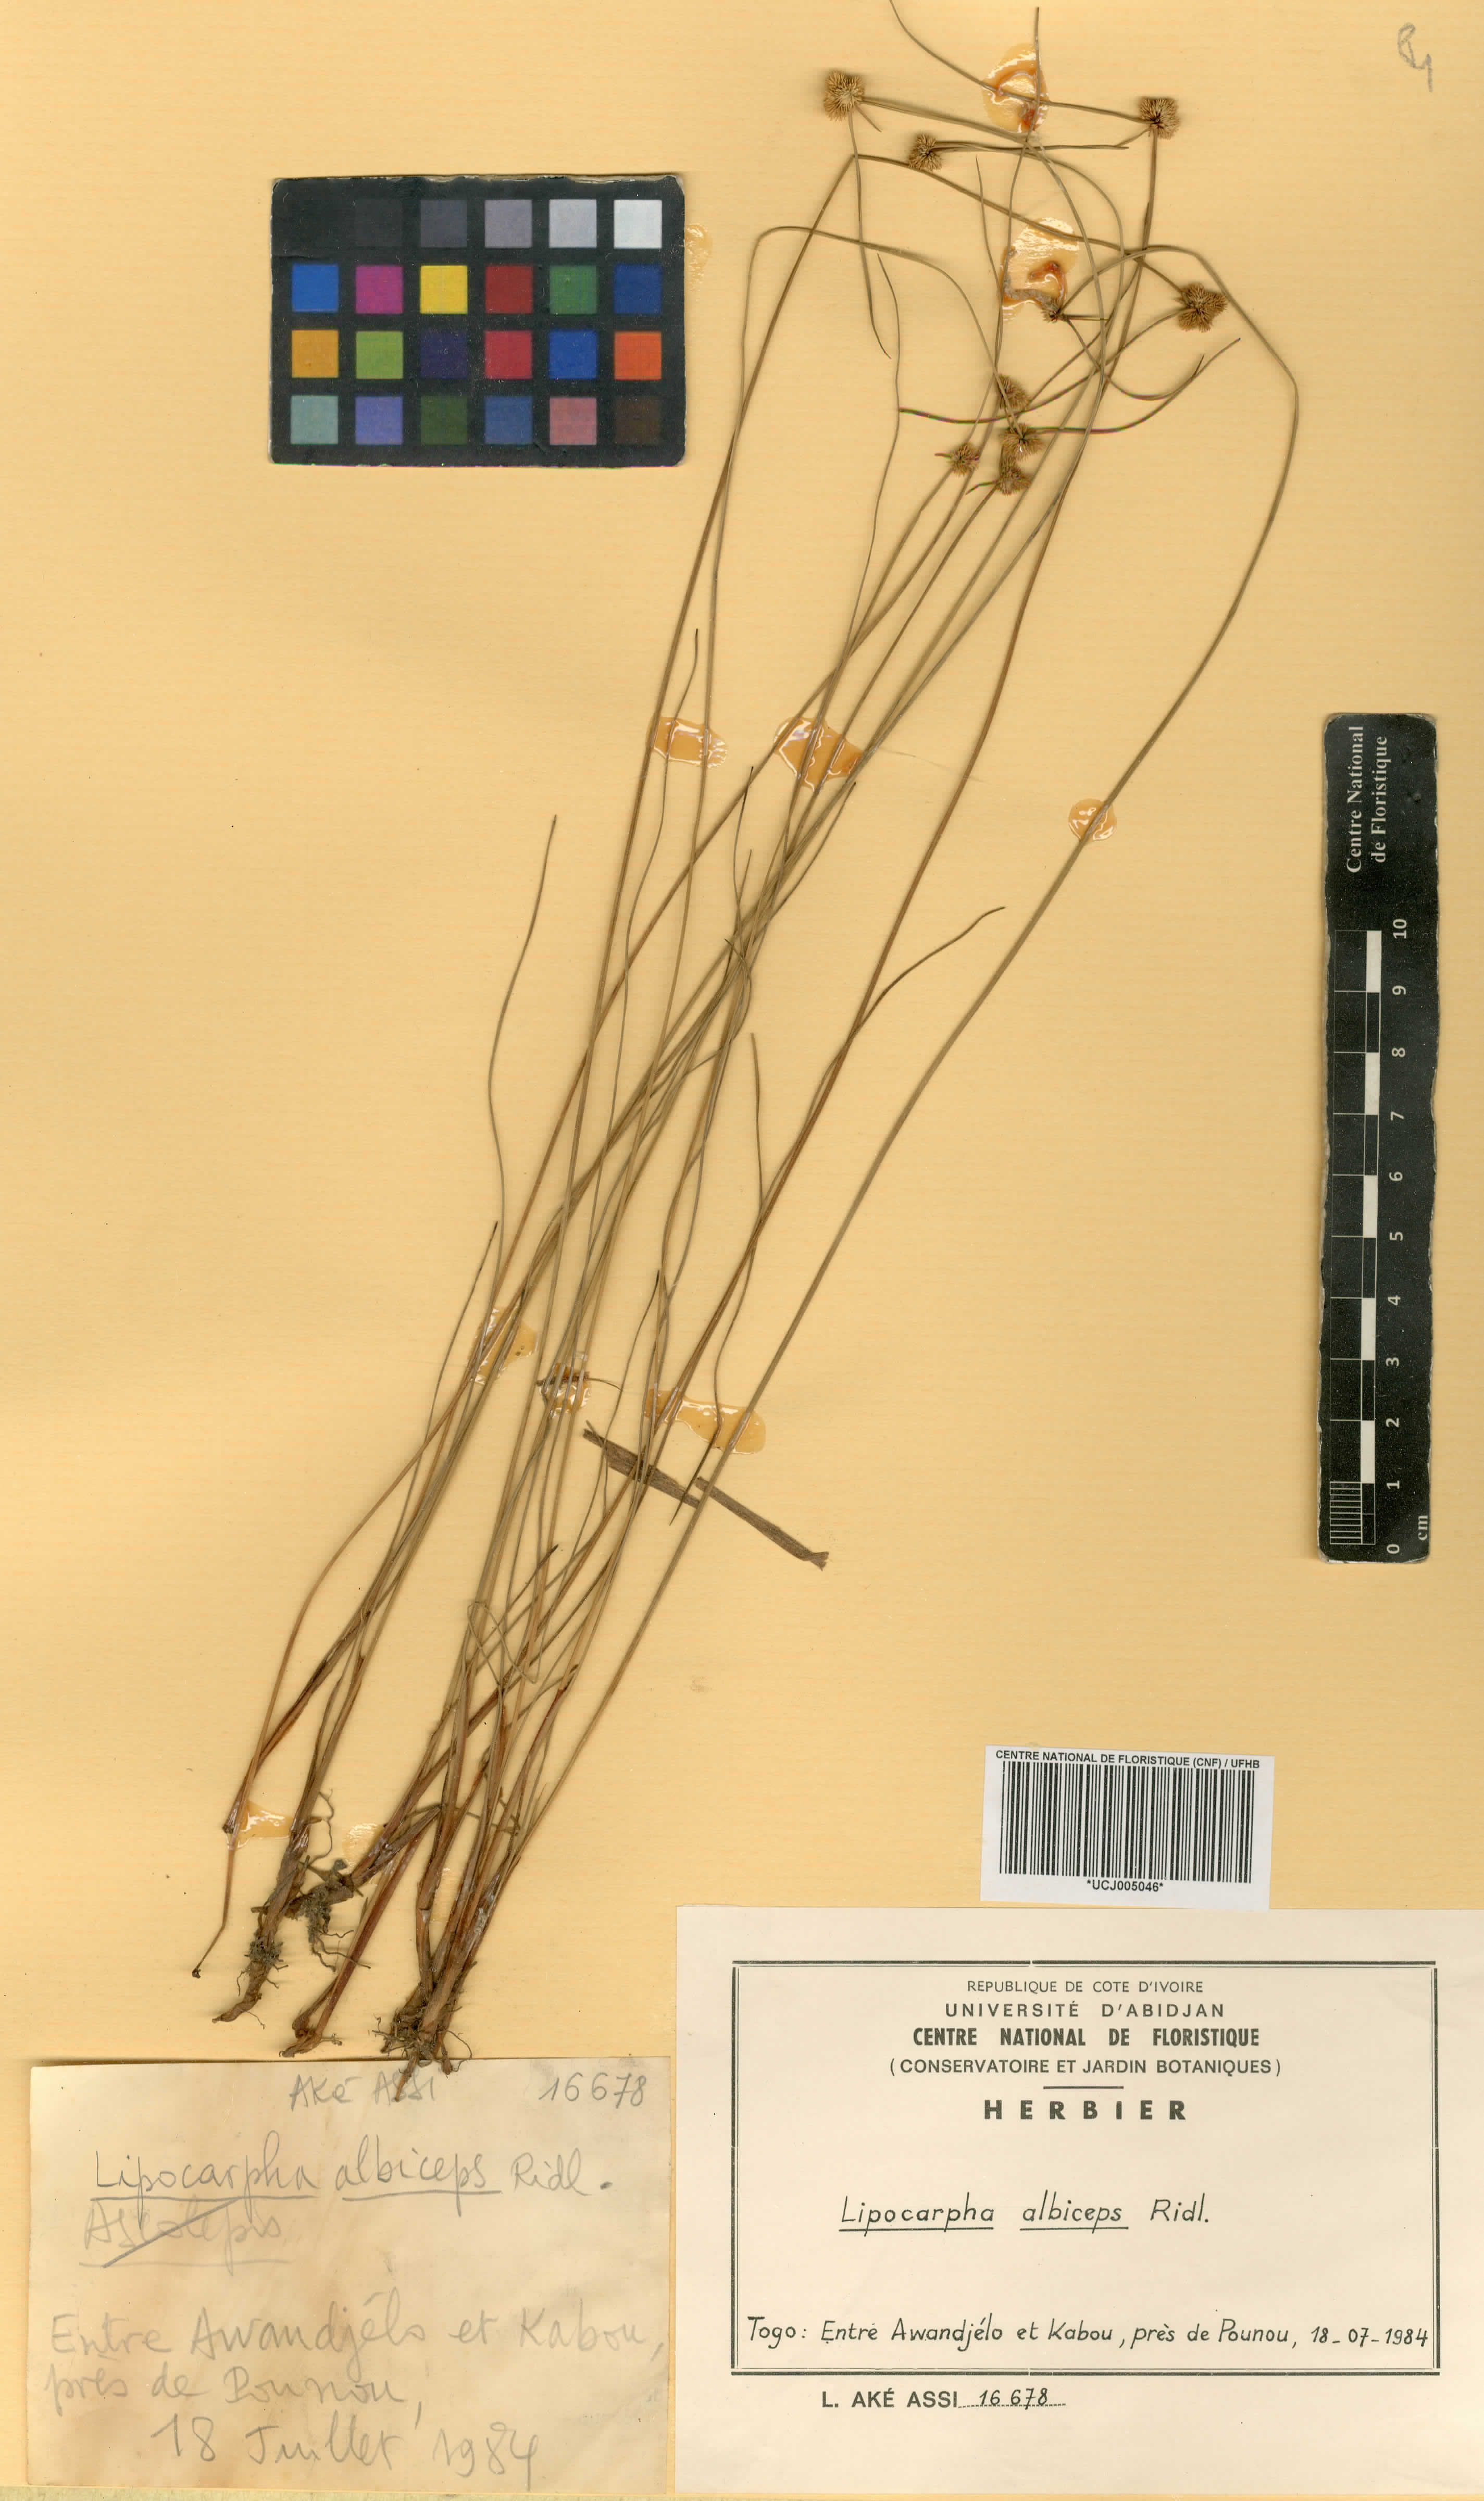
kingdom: Plantae
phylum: Tracheophyta
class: Liliopsida
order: Poales
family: Cyperaceae
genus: Cyperus
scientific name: Cyperus purpureoluteus
